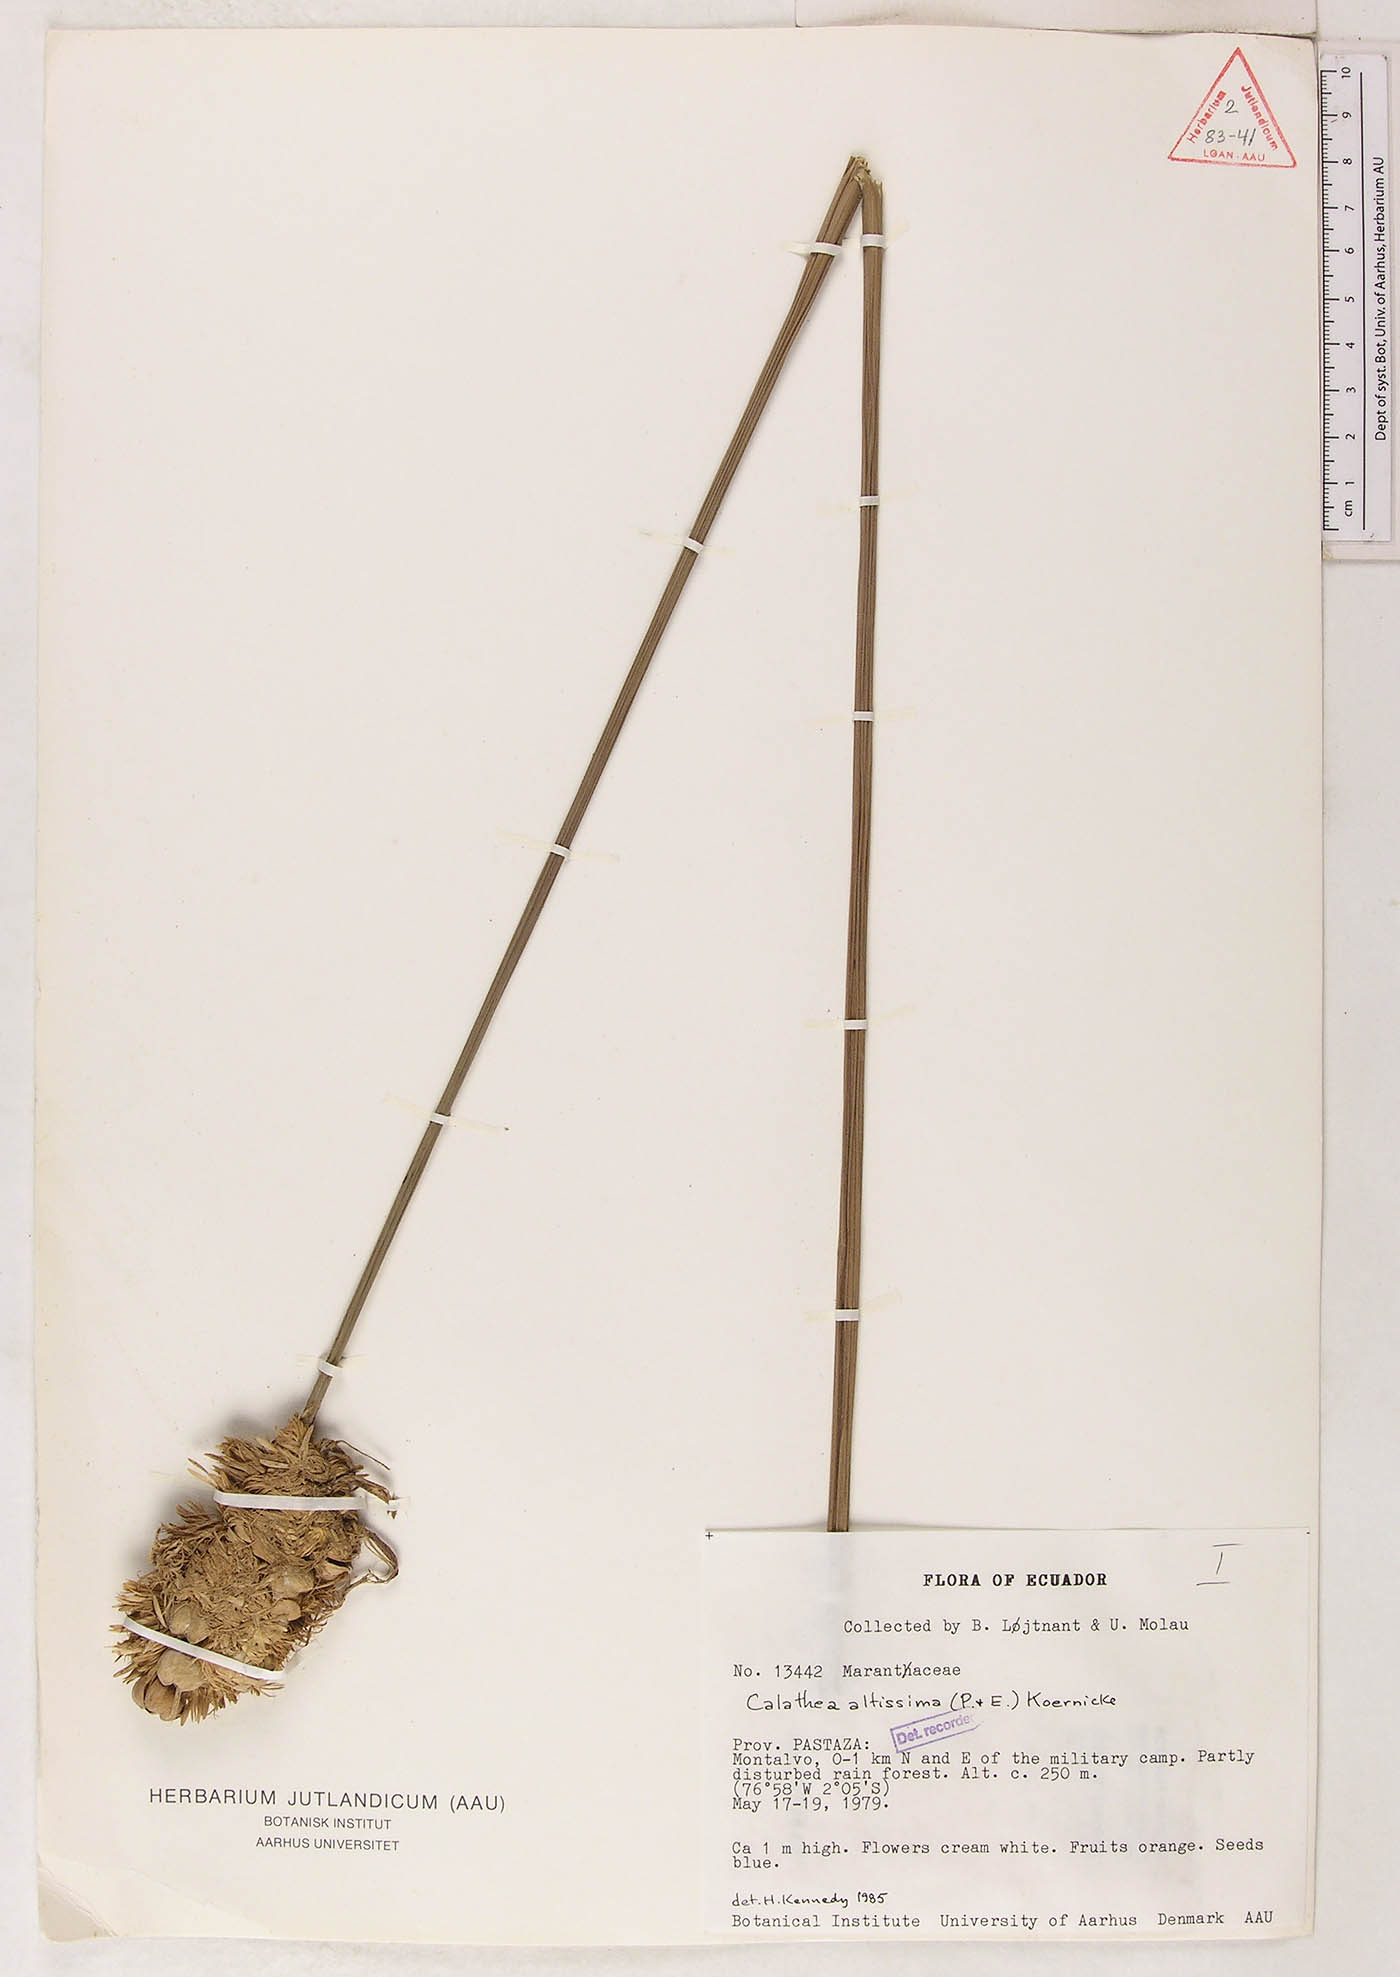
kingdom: Plantae
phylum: Tracheophyta
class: Liliopsida
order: Zingiberales
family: Marantaceae
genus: Goeppertia
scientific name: Goeppertia altissima
